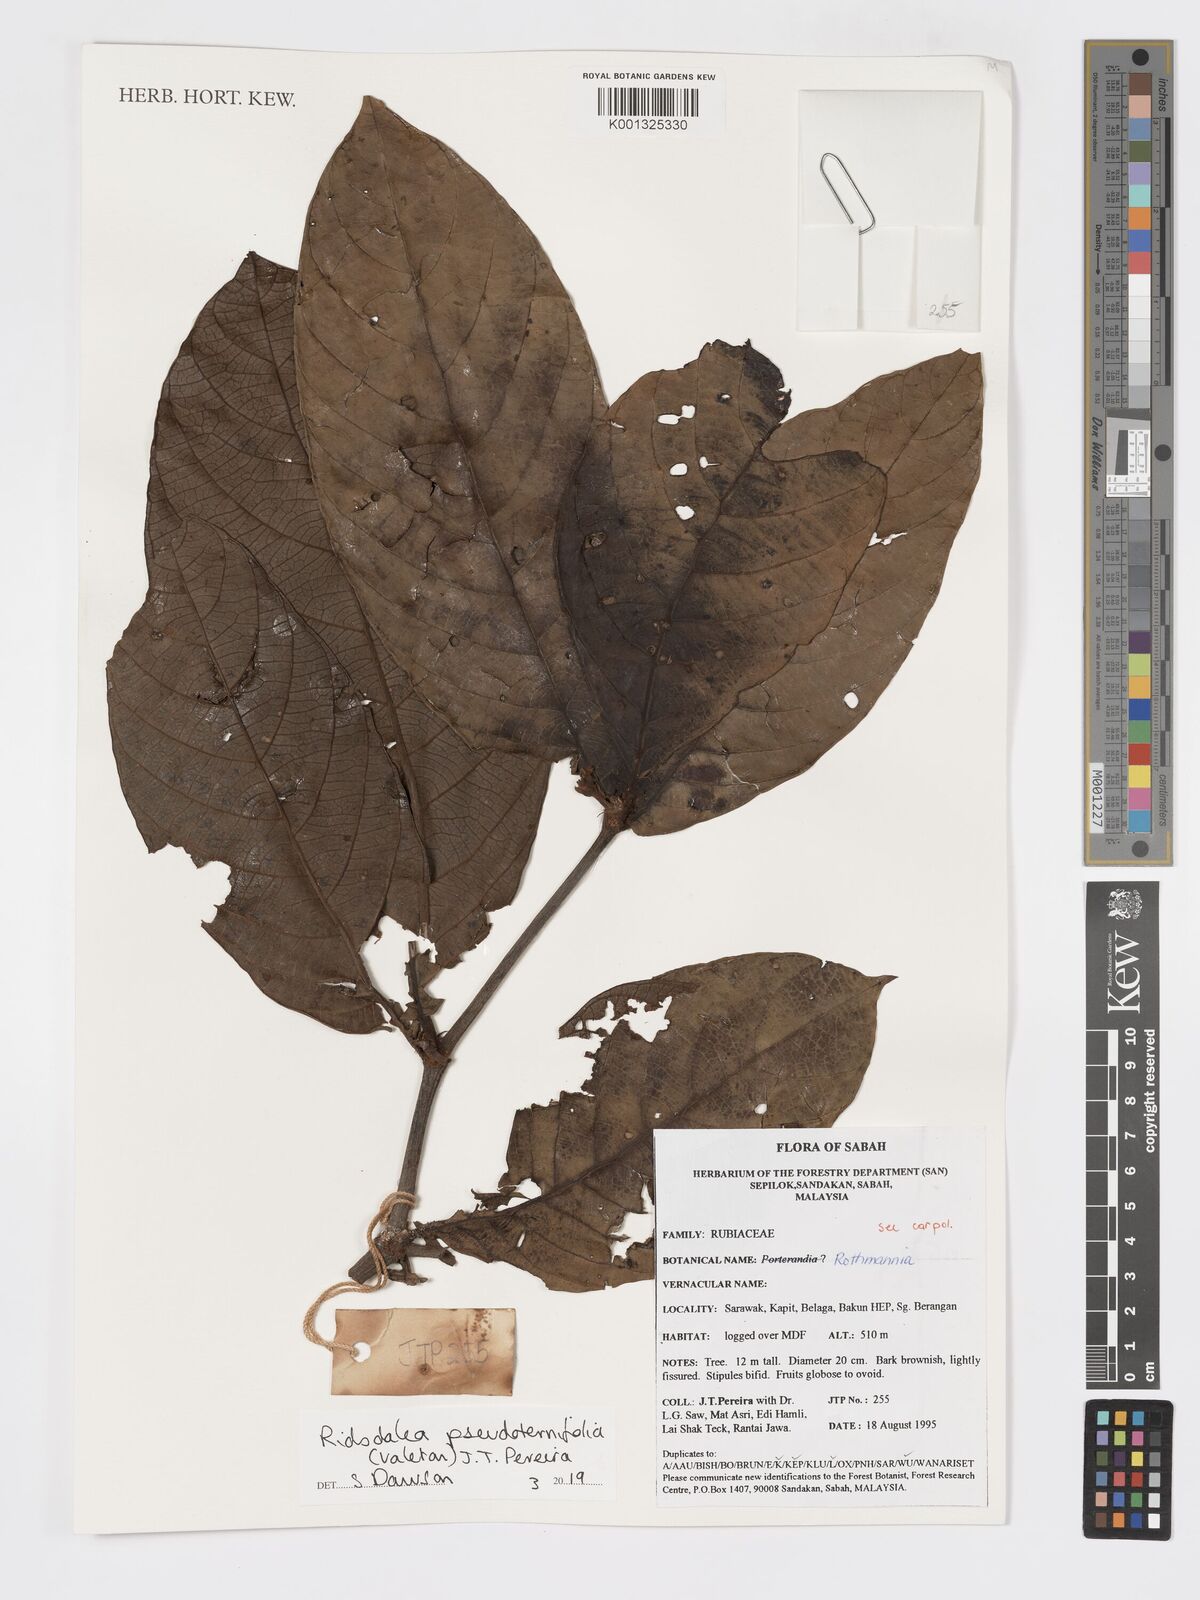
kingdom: Plantae
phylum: Tracheophyta
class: Magnoliopsida
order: Gentianales
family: Rubiaceae
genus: Ridsdalea
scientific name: Ridsdalea pseudoternifolia
